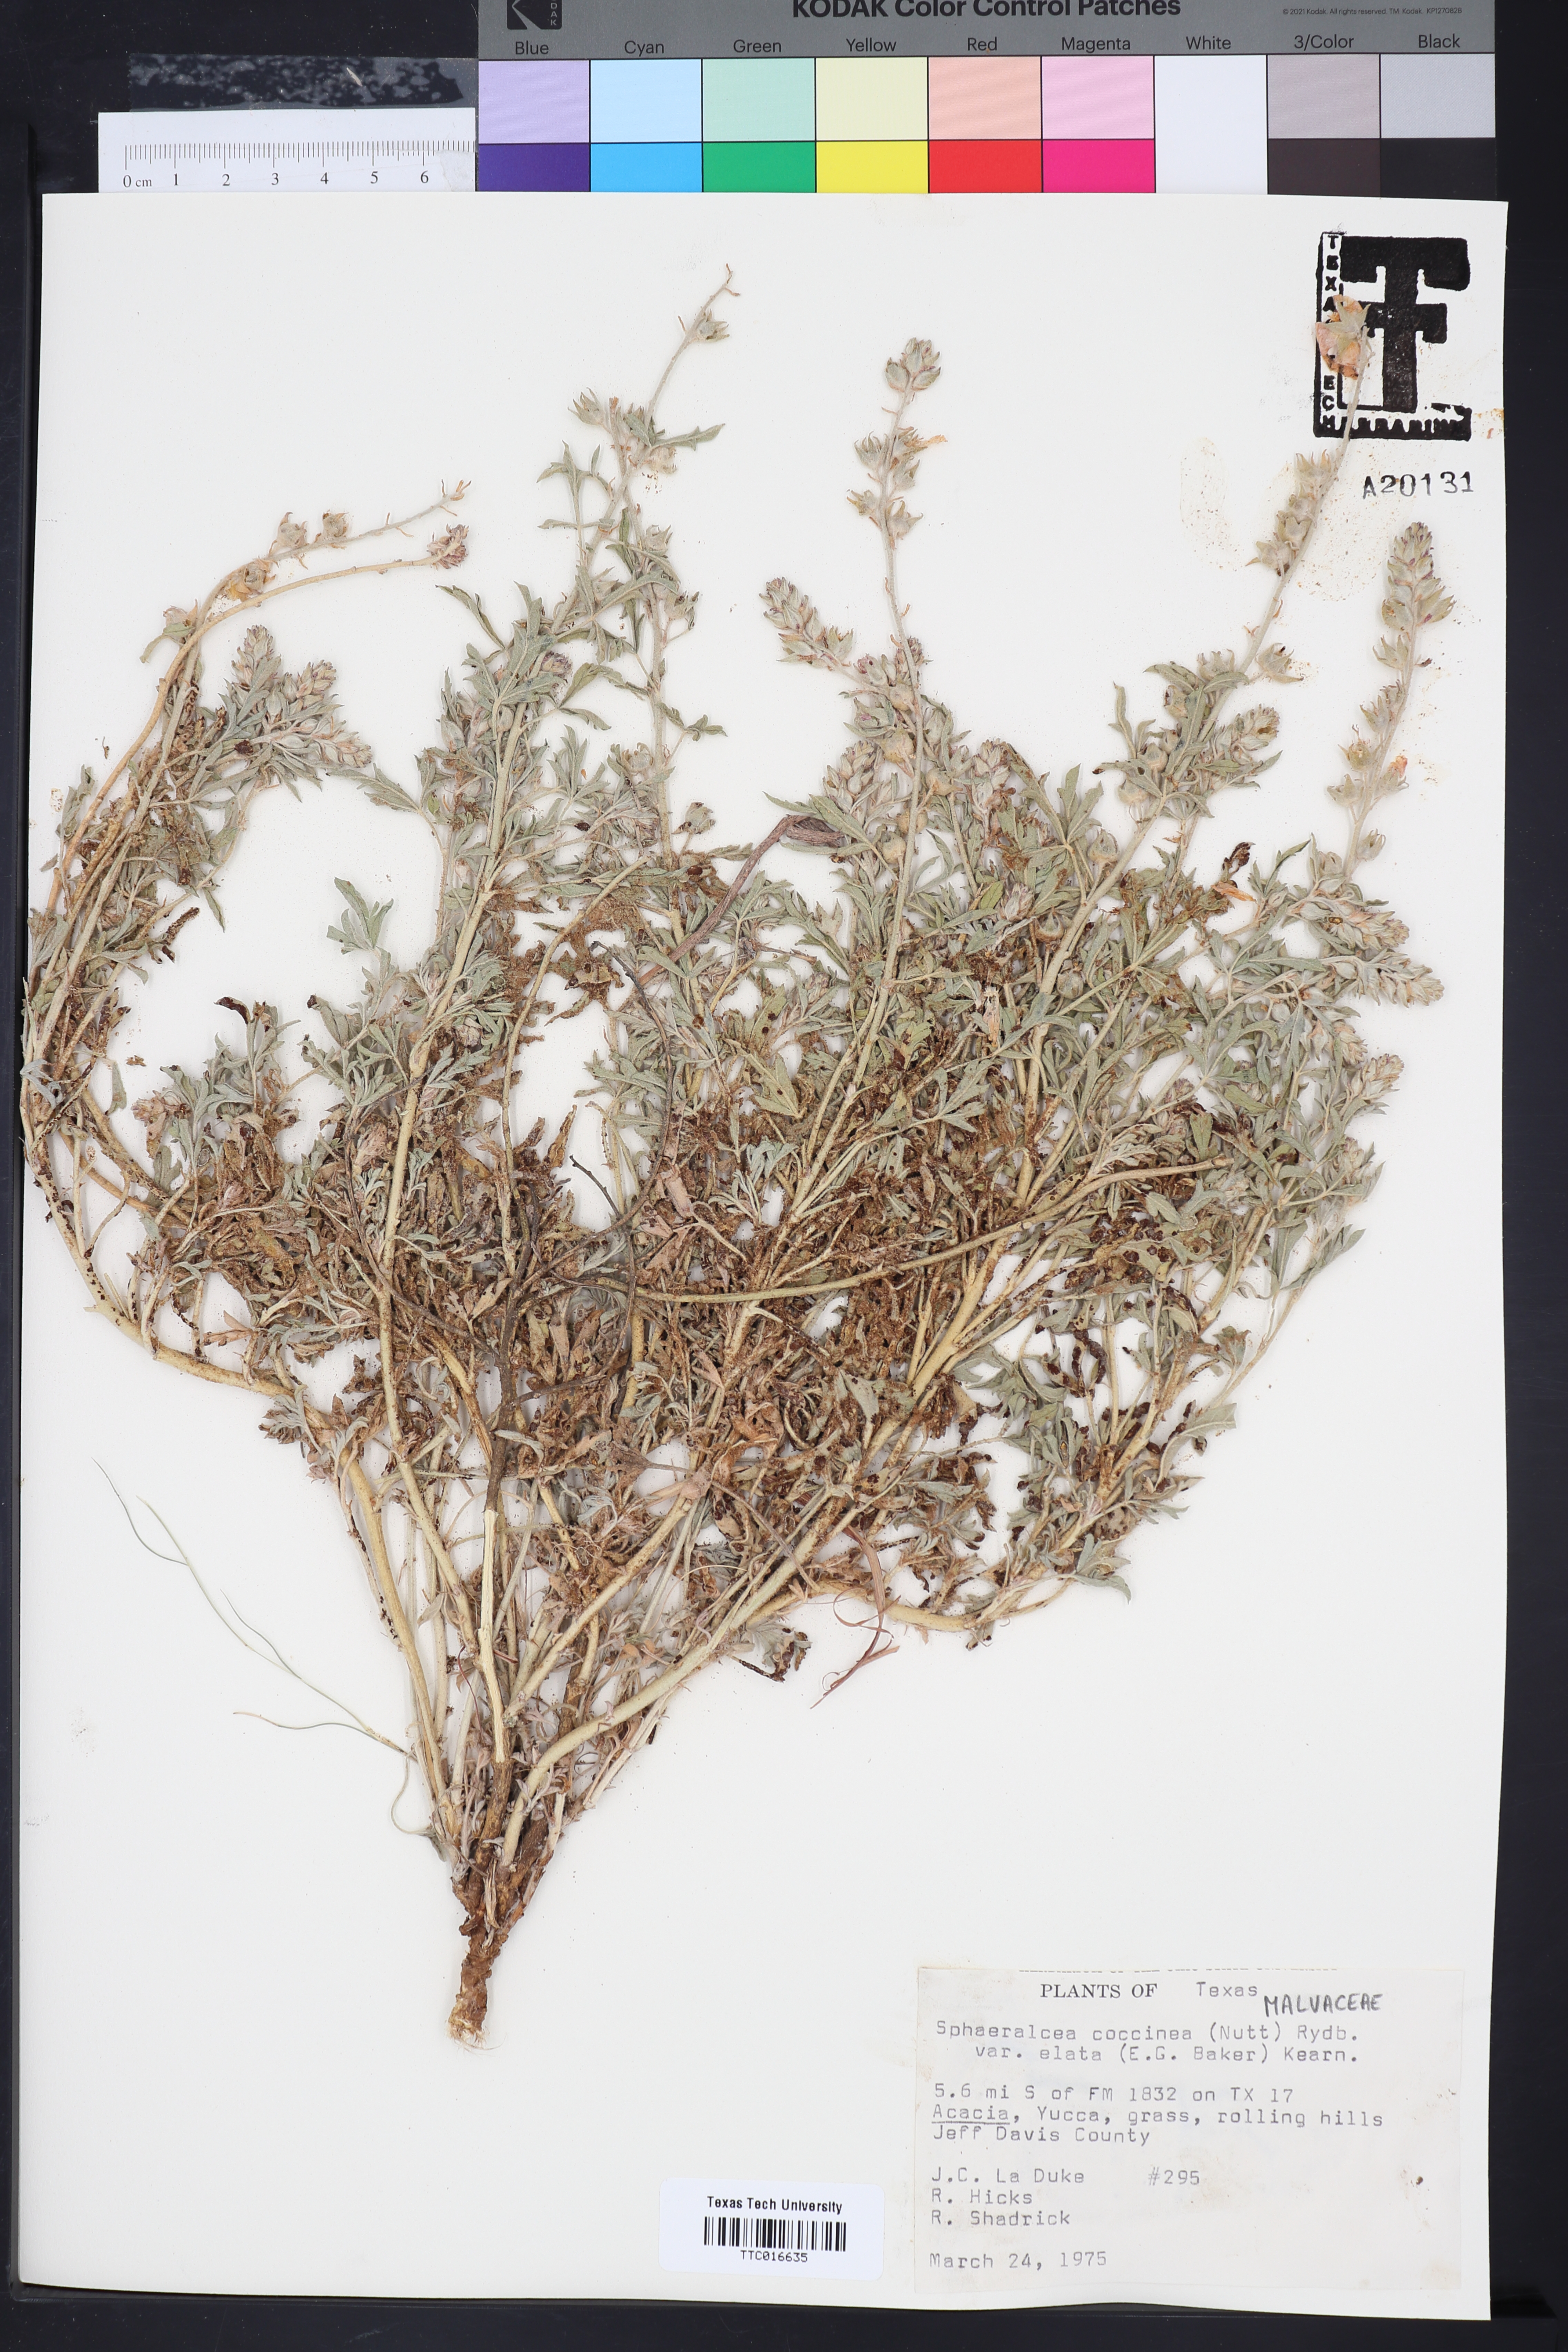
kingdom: Plantae
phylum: Tracheophyta
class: Magnoliopsida
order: Malvales
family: Malvaceae
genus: Sphaeralcea
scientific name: Sphaeralcea coccinea
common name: Moss-rose
